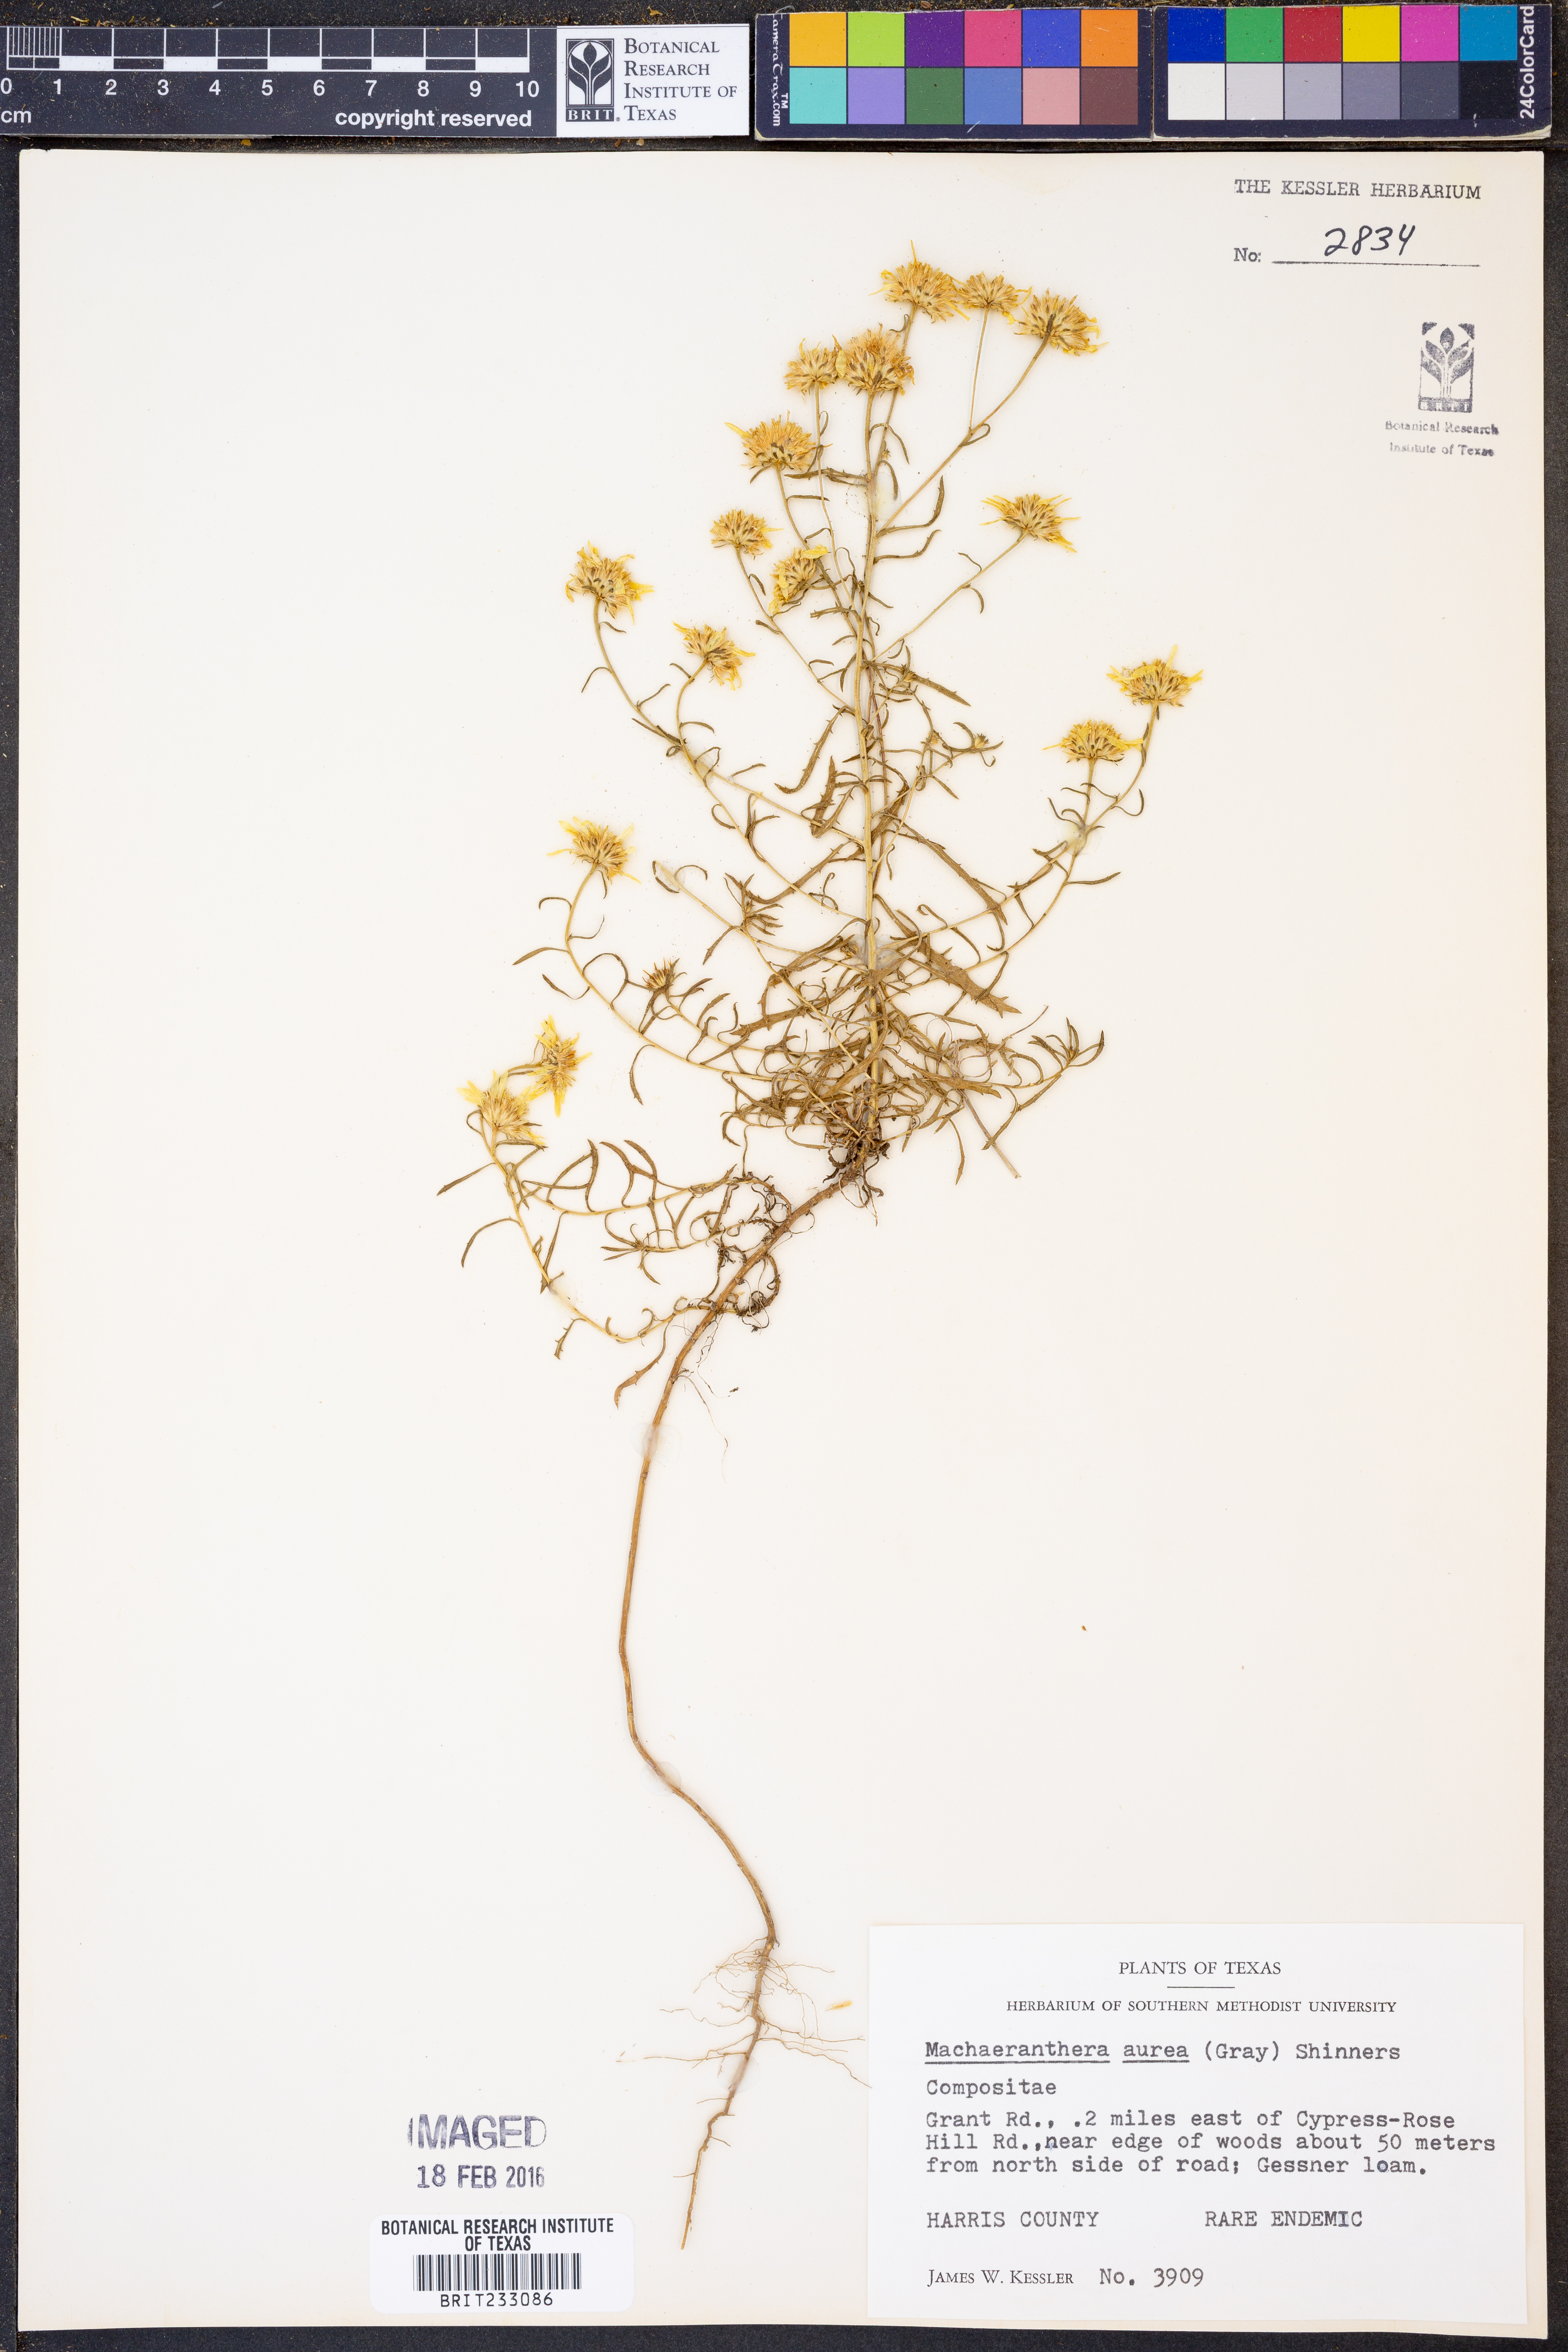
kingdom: Plantae
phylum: Tracheophyta
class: Magnoliopsida
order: Asterales
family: Asteraceae
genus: Rayjacksonia
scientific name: Rayjacksonia aurea
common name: Houston camphor daisy
